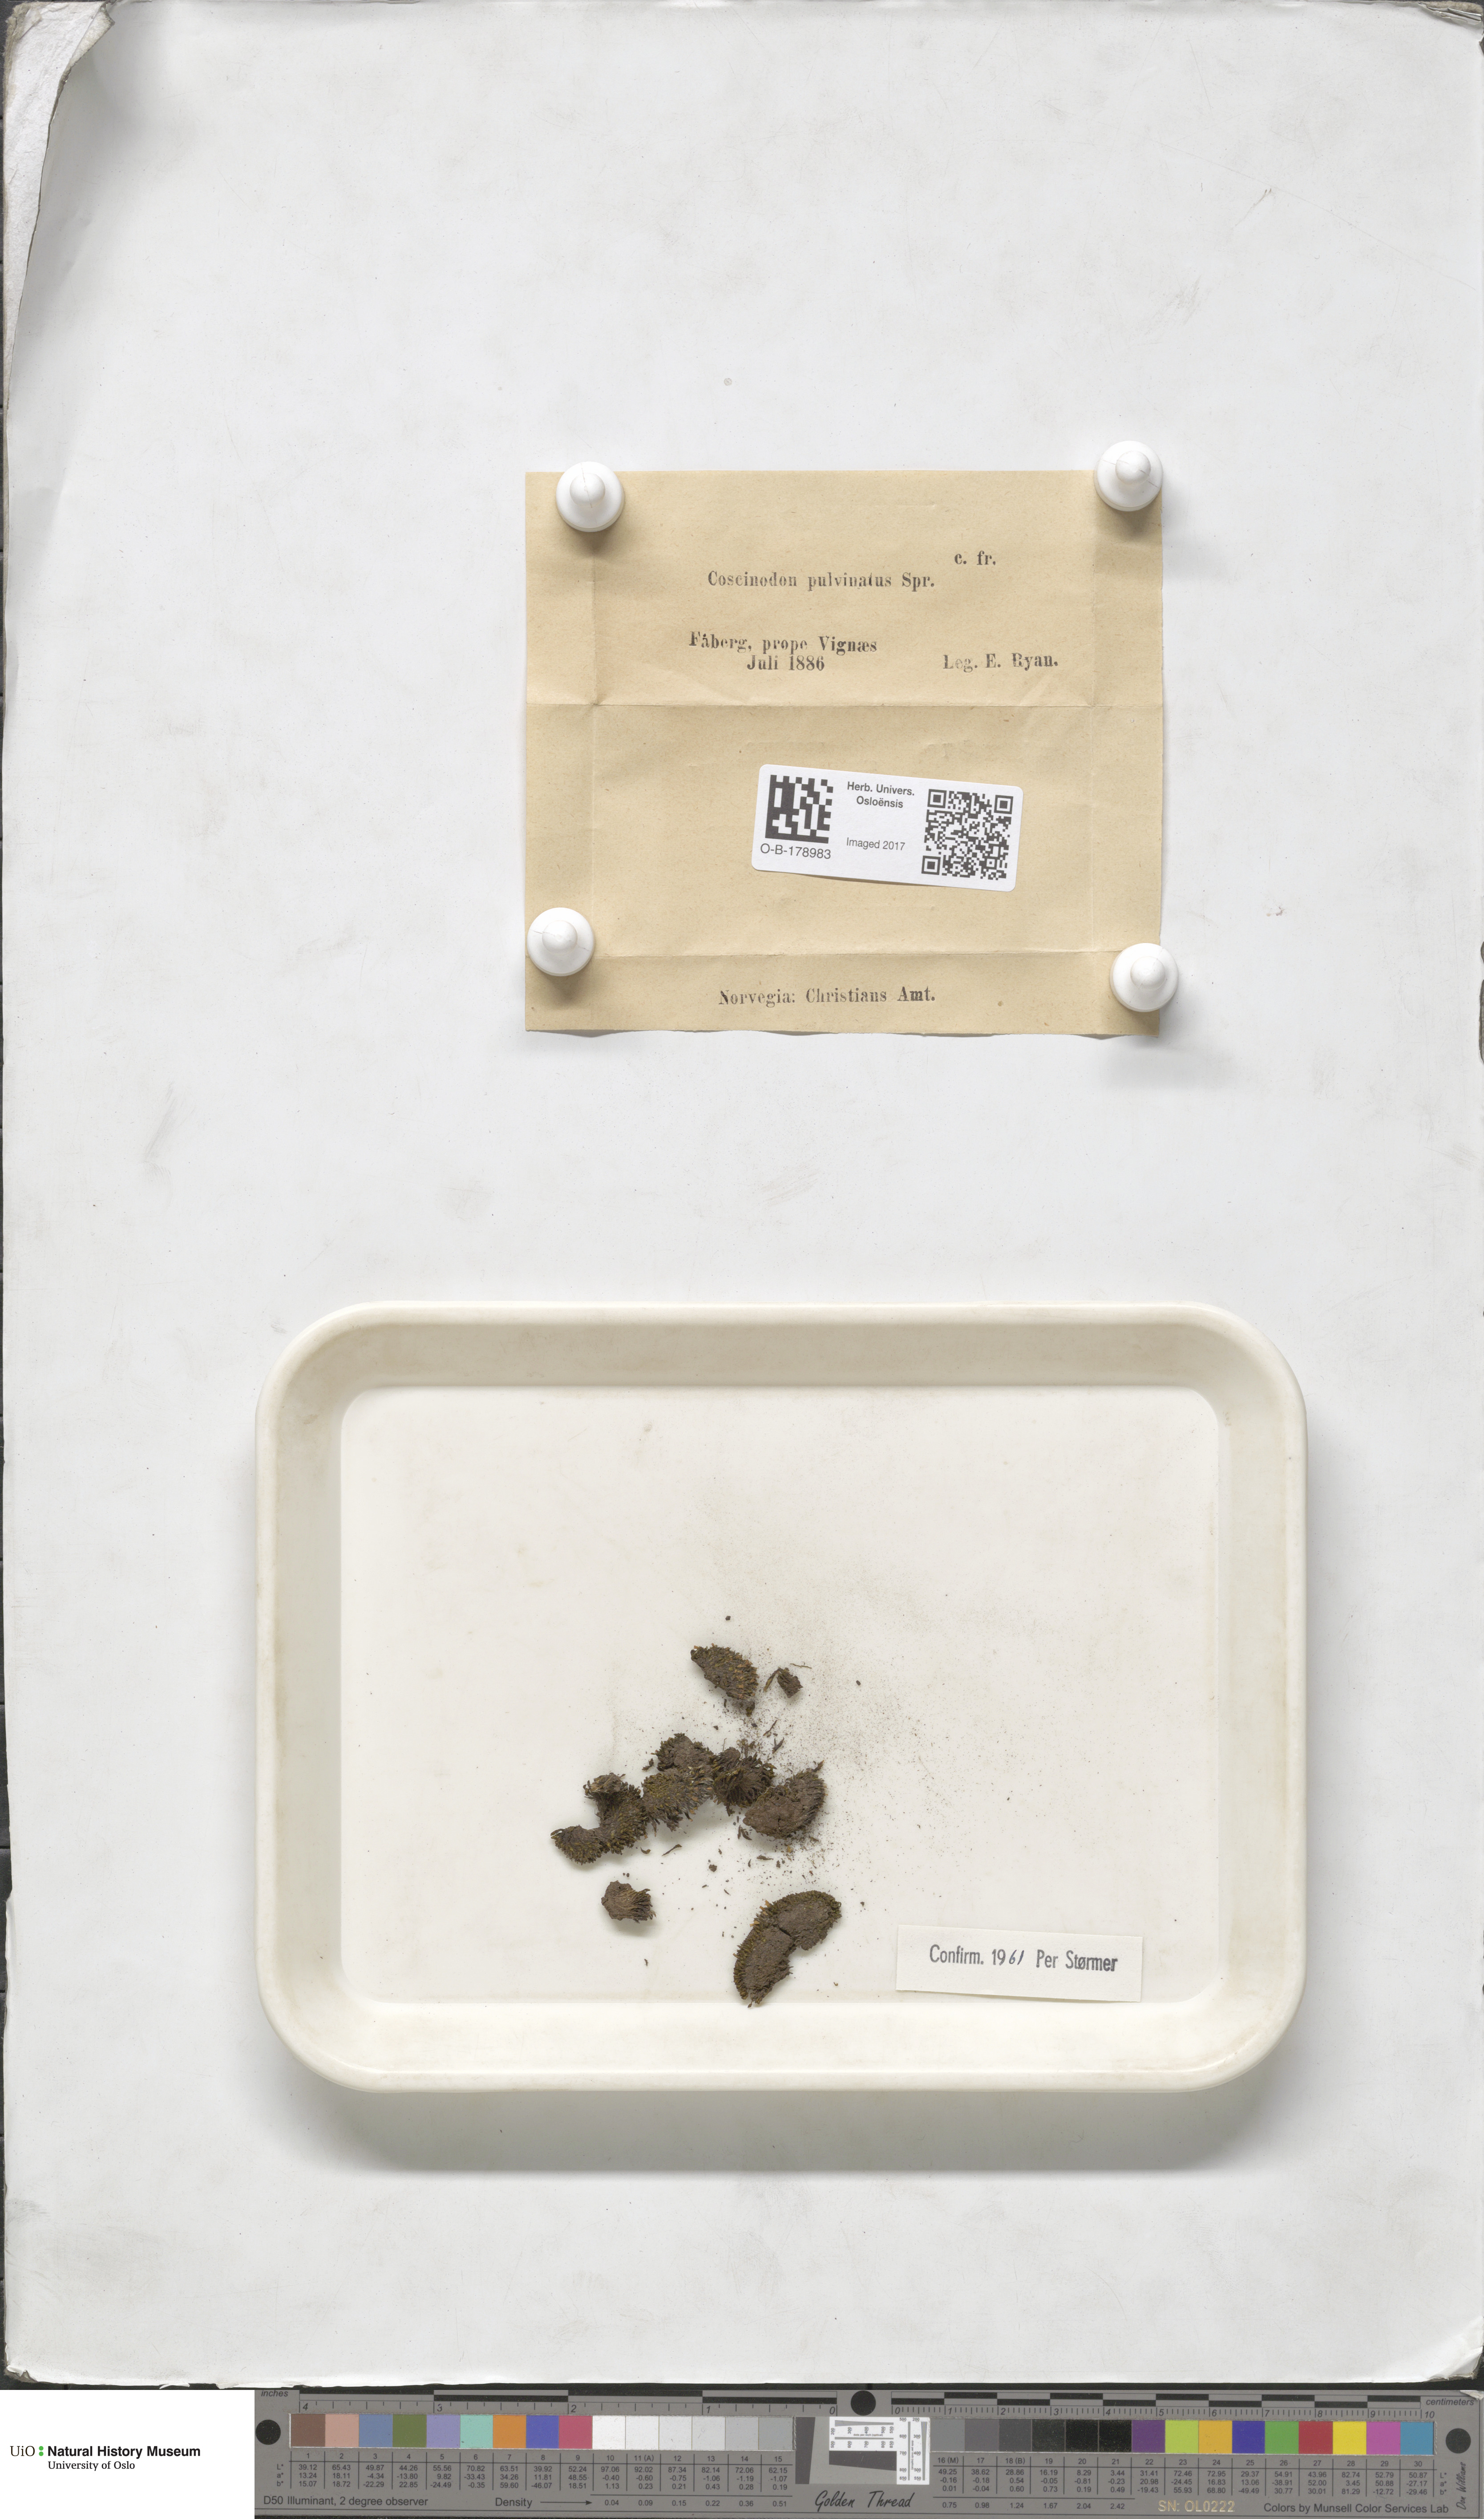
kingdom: Plantae
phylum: Bryophyta
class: Bryopsida
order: Bartramiales
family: Bartramiaceae
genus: Conostomum
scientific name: Conostomum tetragonum
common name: Helmet moss
